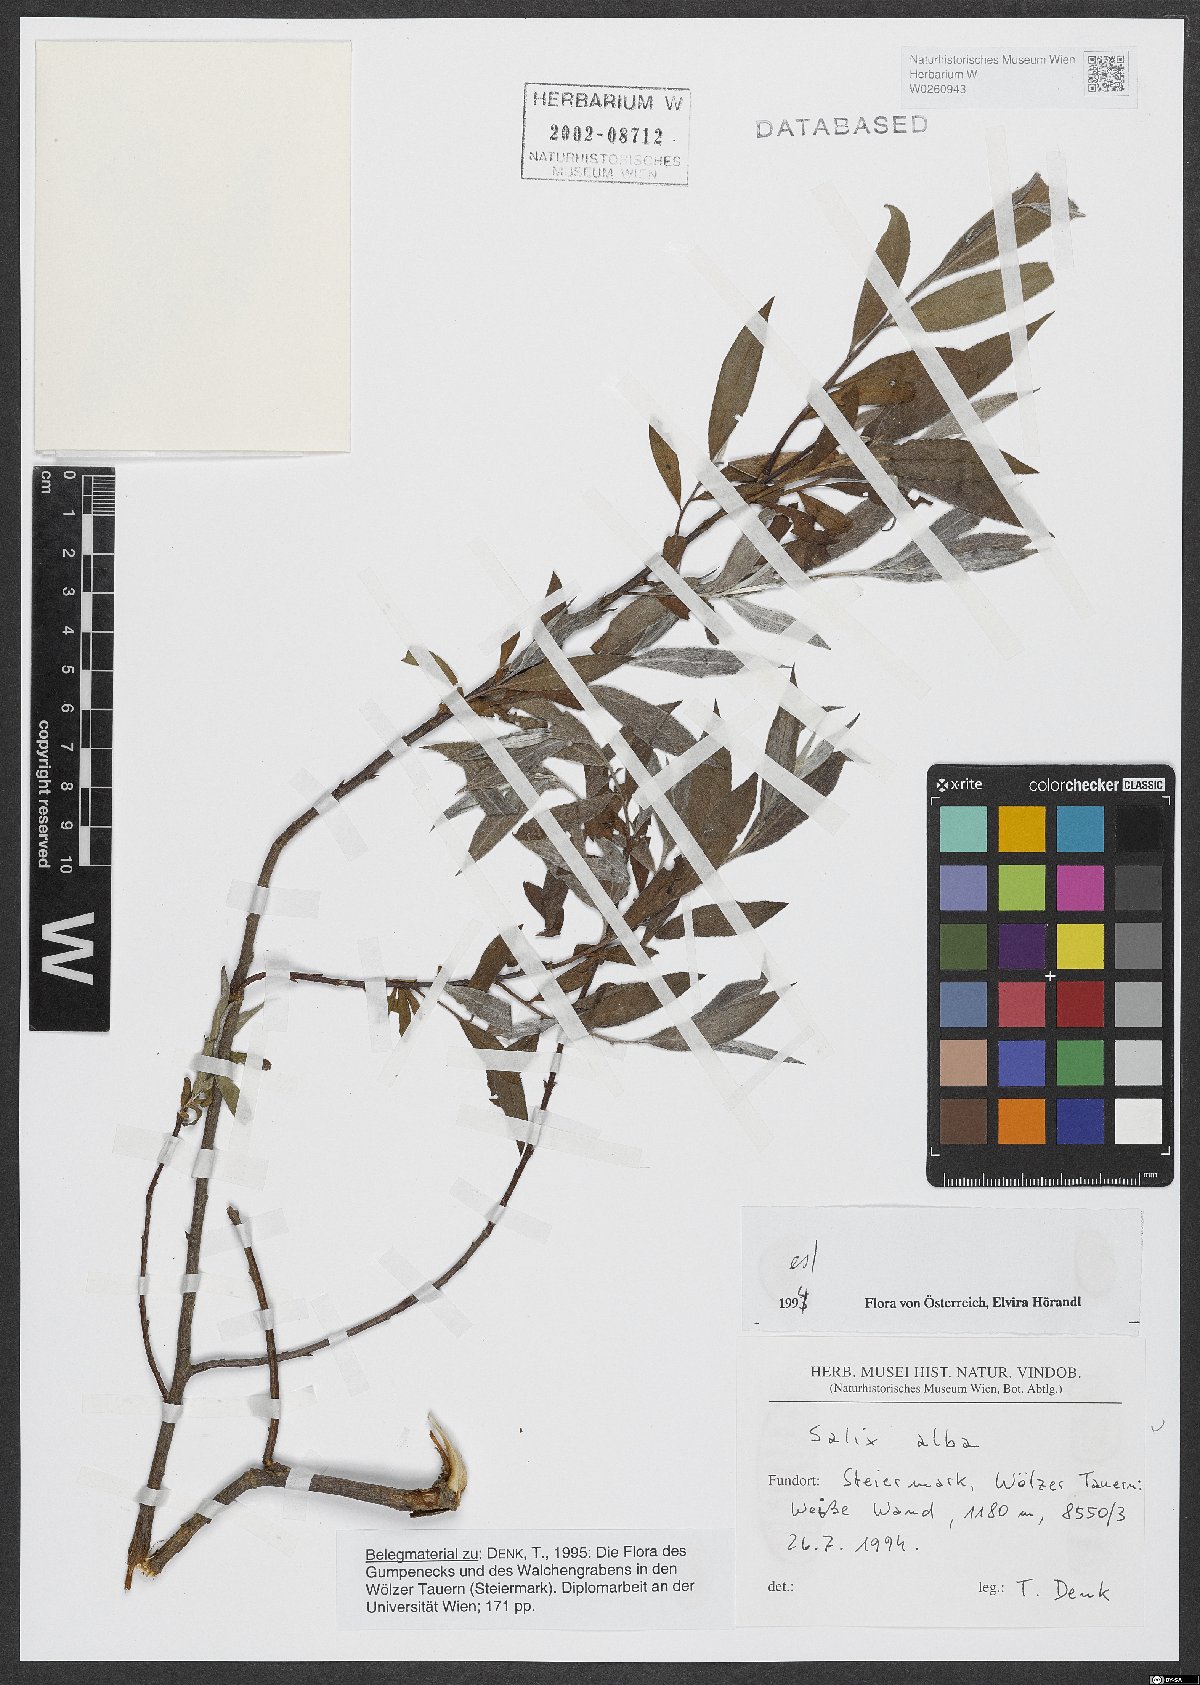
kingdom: Plantae
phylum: Tracheophyta
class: Magnoliopsida
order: Malpighiales
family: Salicaceae
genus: Salix
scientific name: Salix alba
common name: White willow
